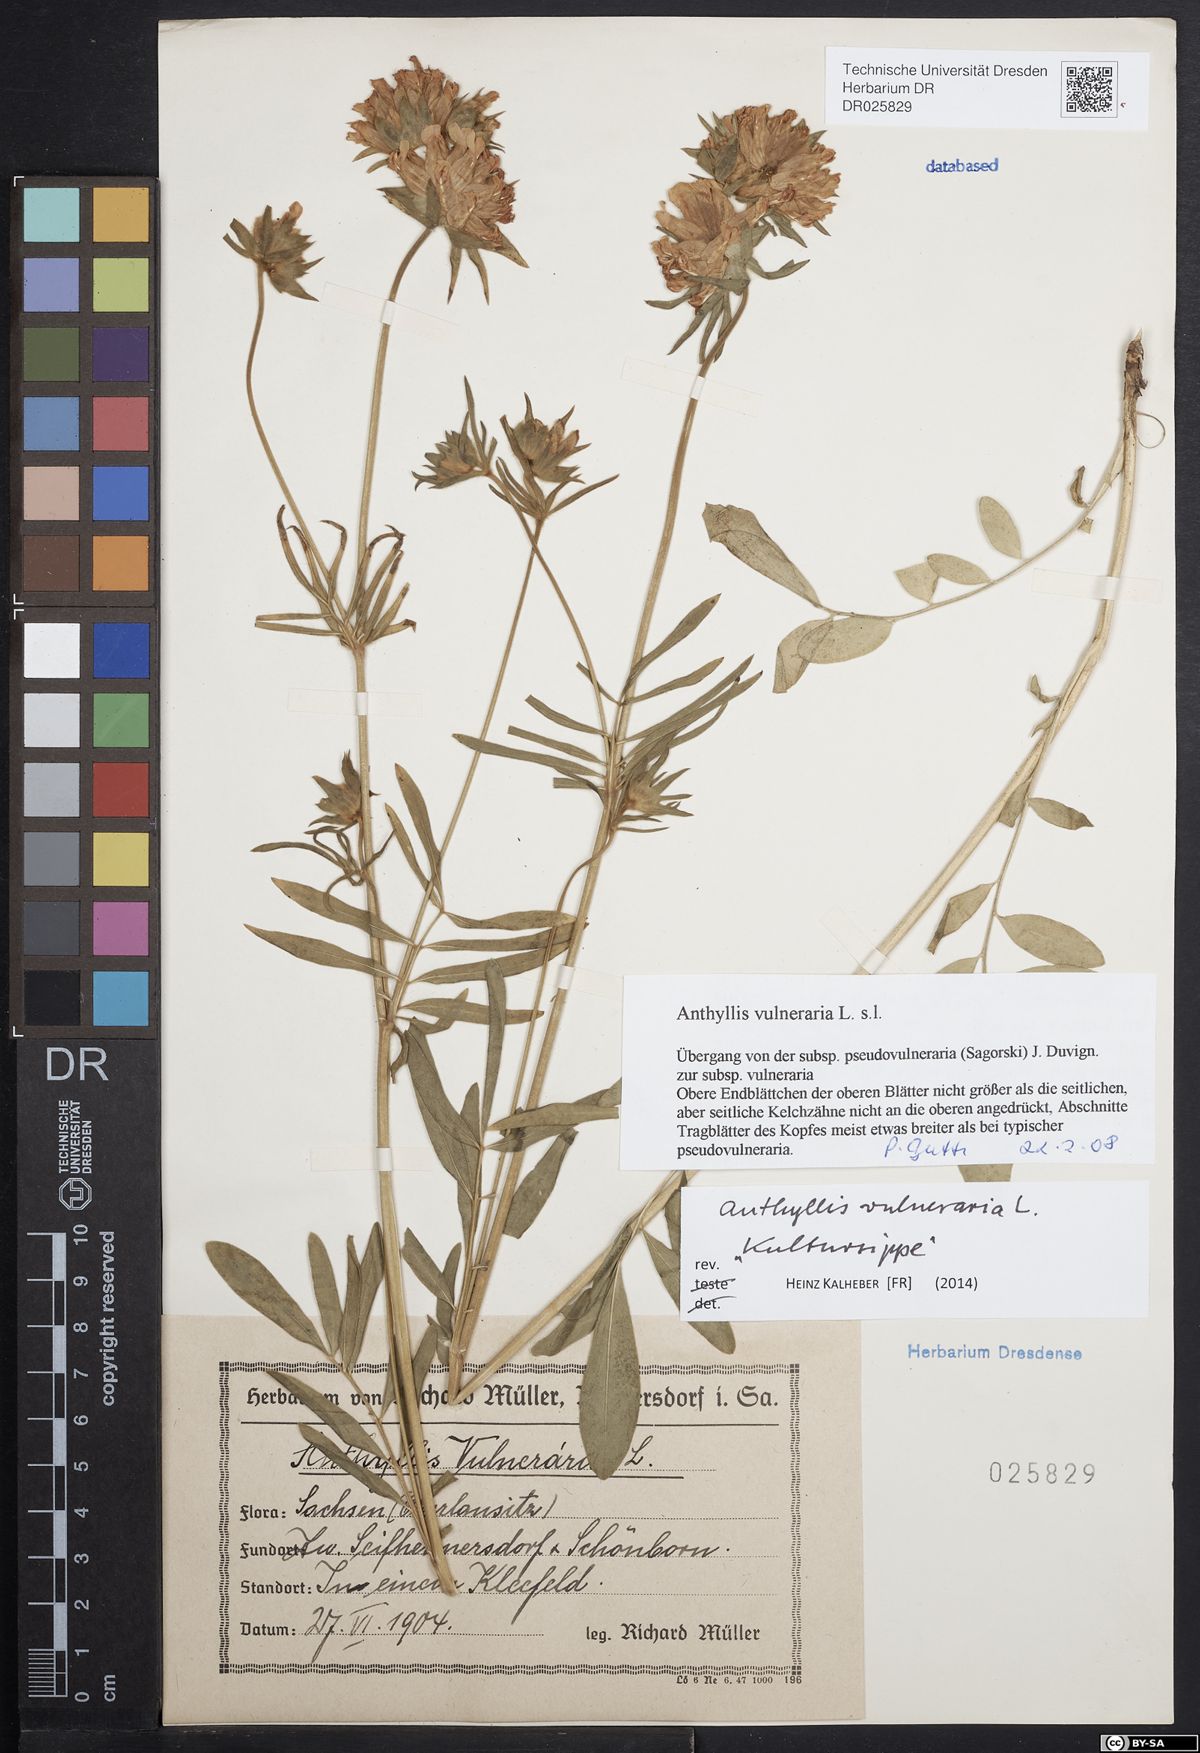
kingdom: Plantae
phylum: Tracheophyta
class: Magnoliopsida
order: Fabales
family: Fabaceae
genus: Anthyllis
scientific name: Anthyllis vulneraria
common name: Kidney vetch
